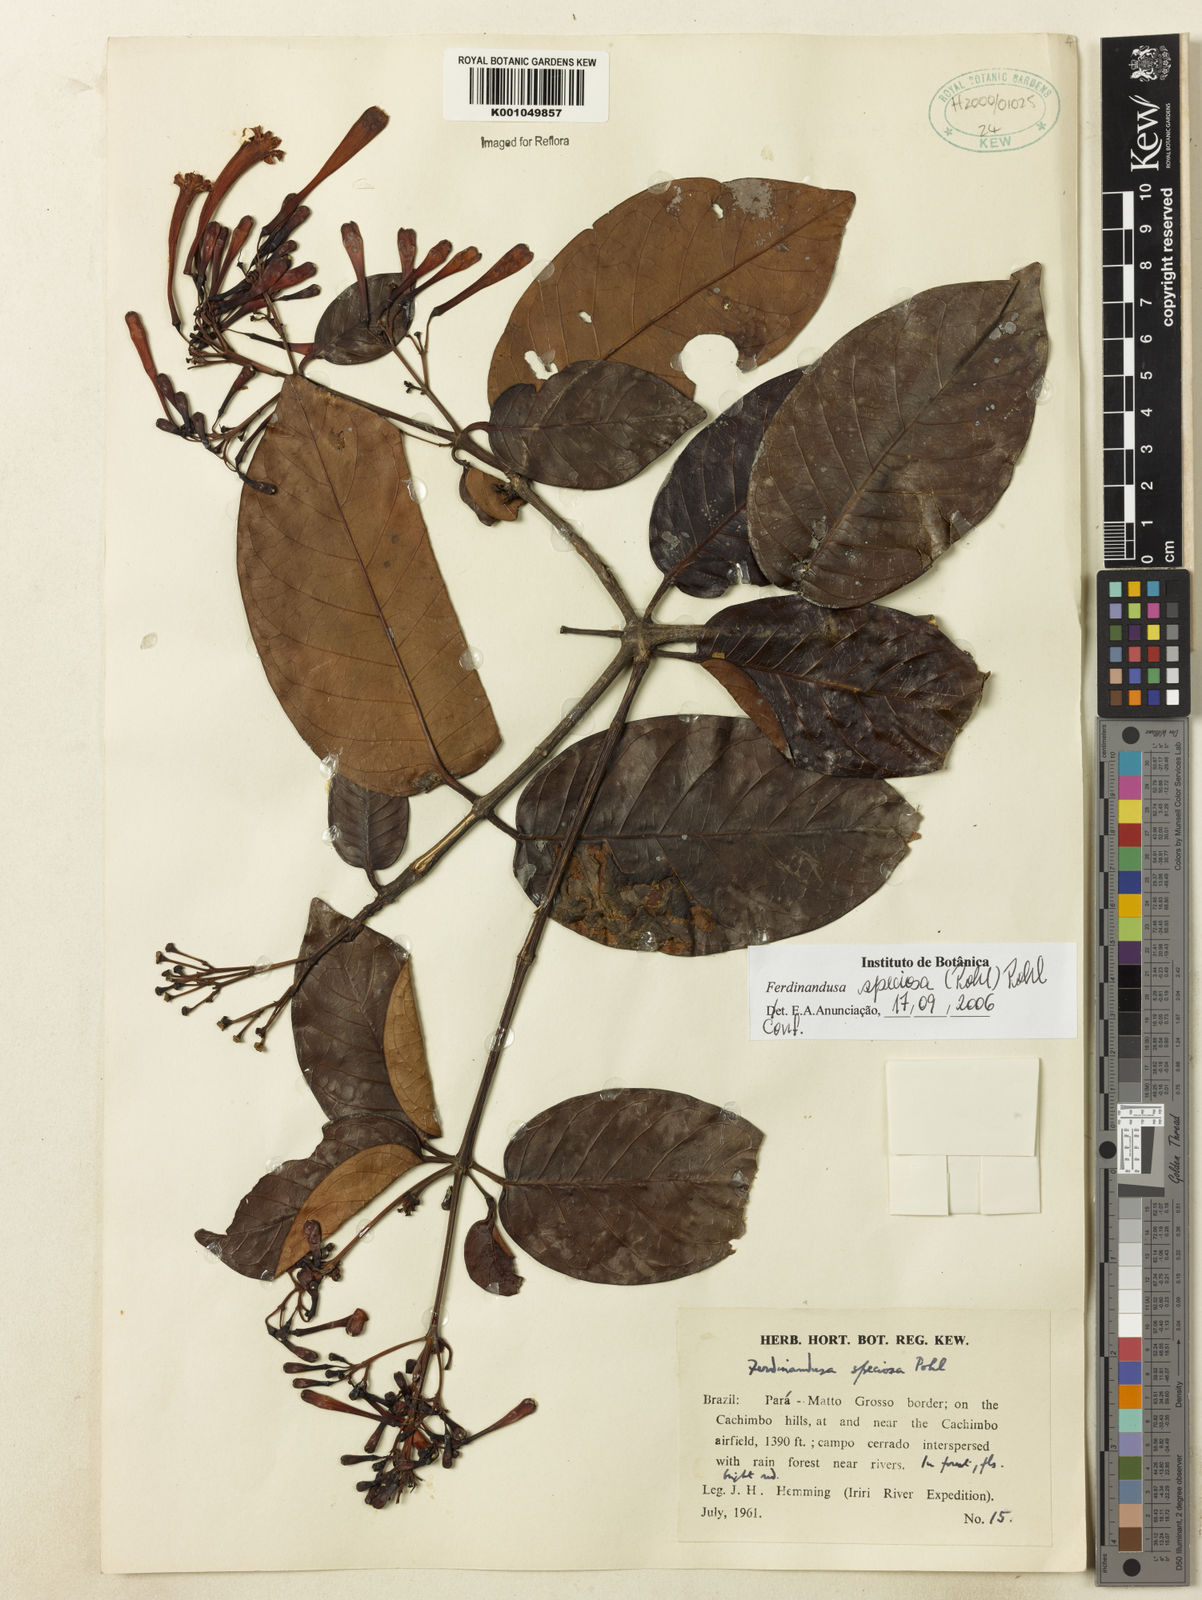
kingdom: Plantae
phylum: Tracheophyta
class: Magnoliopsida
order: Gentianales
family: Rubiaceae
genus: Ferdinandusa
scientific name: Ferdinandusa speciosa
